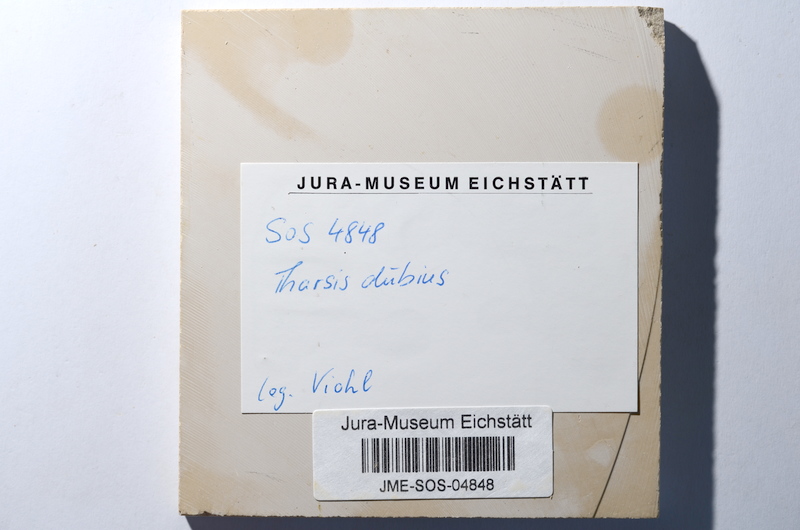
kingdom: Animalia
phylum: Chordata
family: Ascalaboidae
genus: Tharsis
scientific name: Tharsis dubius
